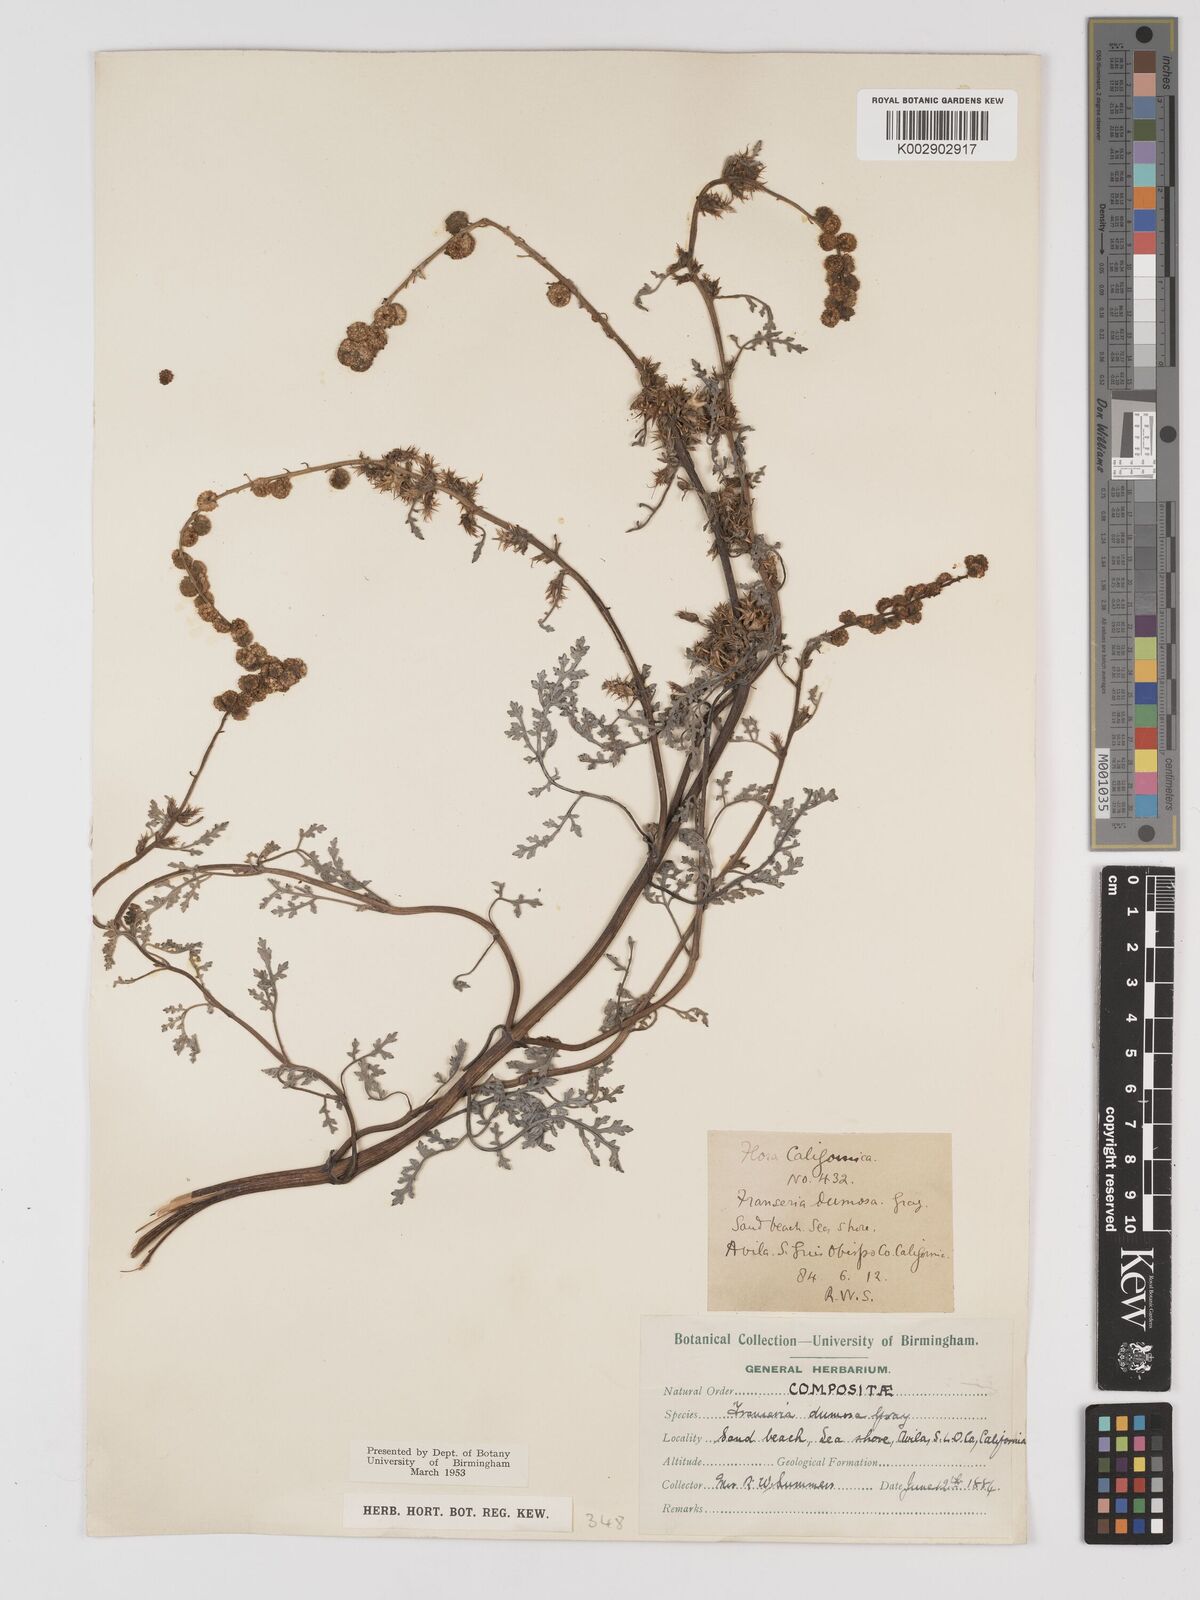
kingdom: Plantae
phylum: Tracheophyta
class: Magnoliopsida
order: Asterales
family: Asteraceae
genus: Ambrosia
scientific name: Ambrosia dumosa
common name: Bur-sage
